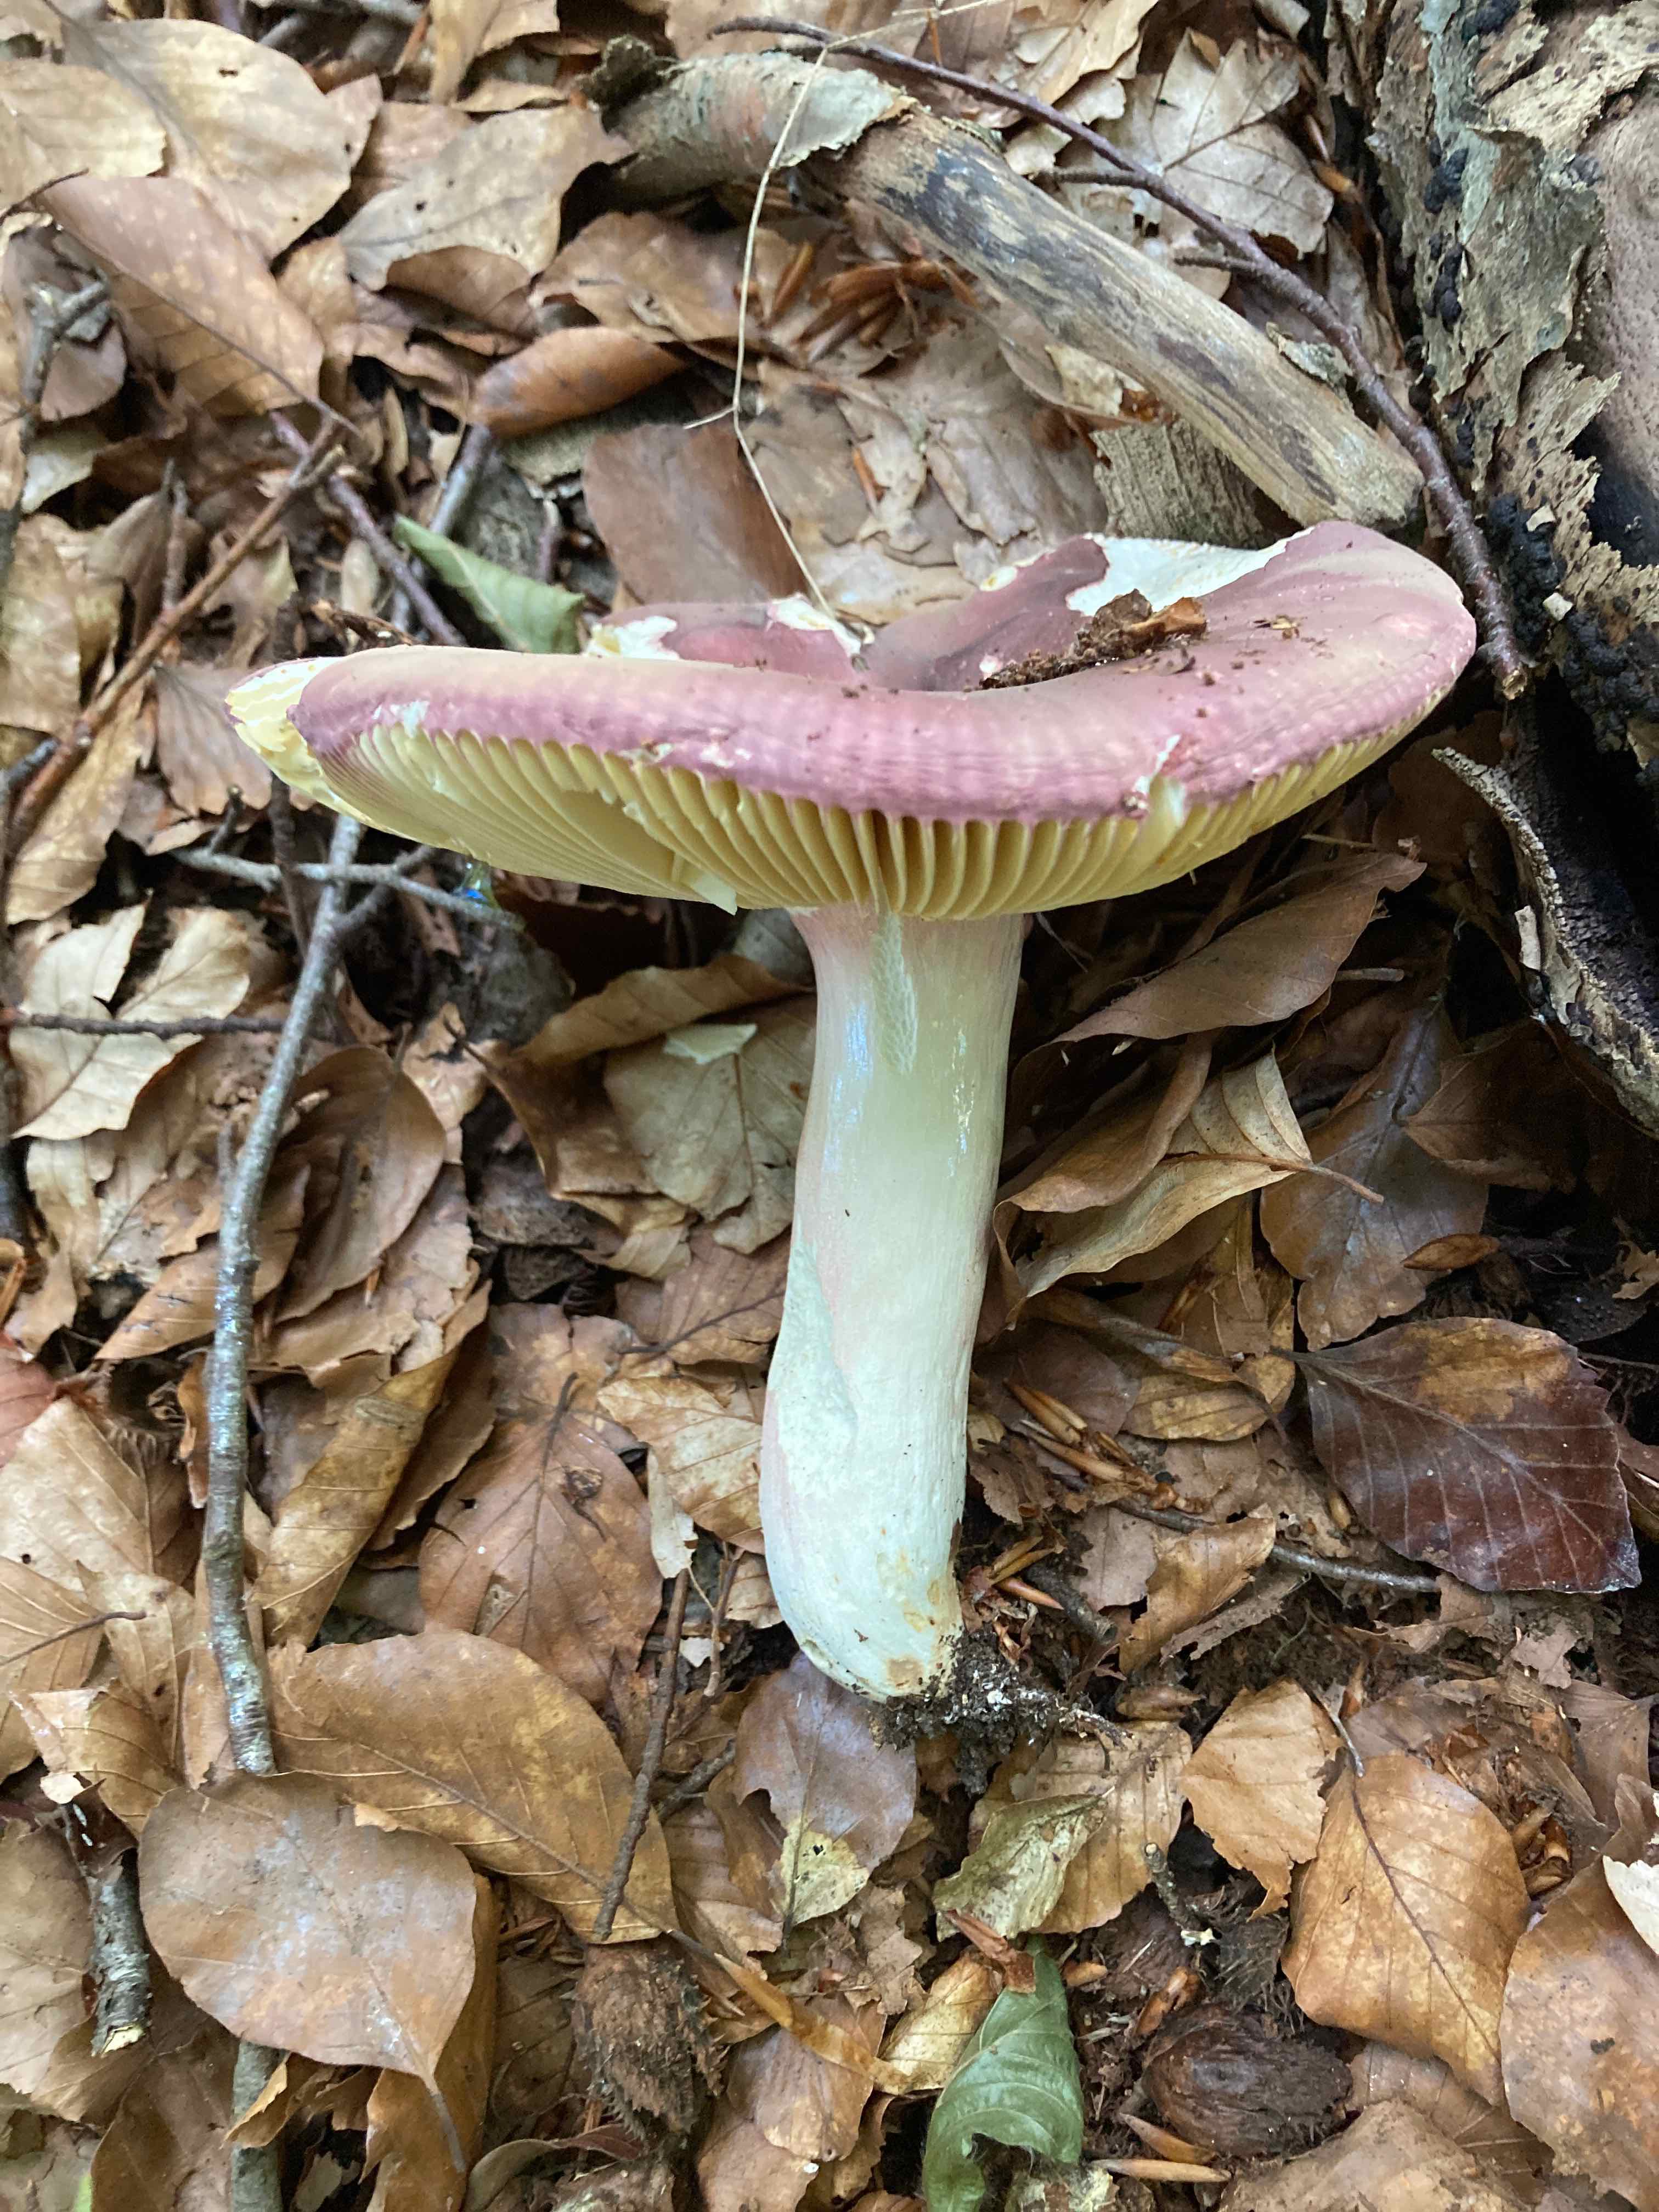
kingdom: Fungi
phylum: Basidiomycota
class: Agaricomycetes
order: Russulales
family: Russulaceae
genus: Russula
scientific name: Russula olivacea
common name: stor skørhat
